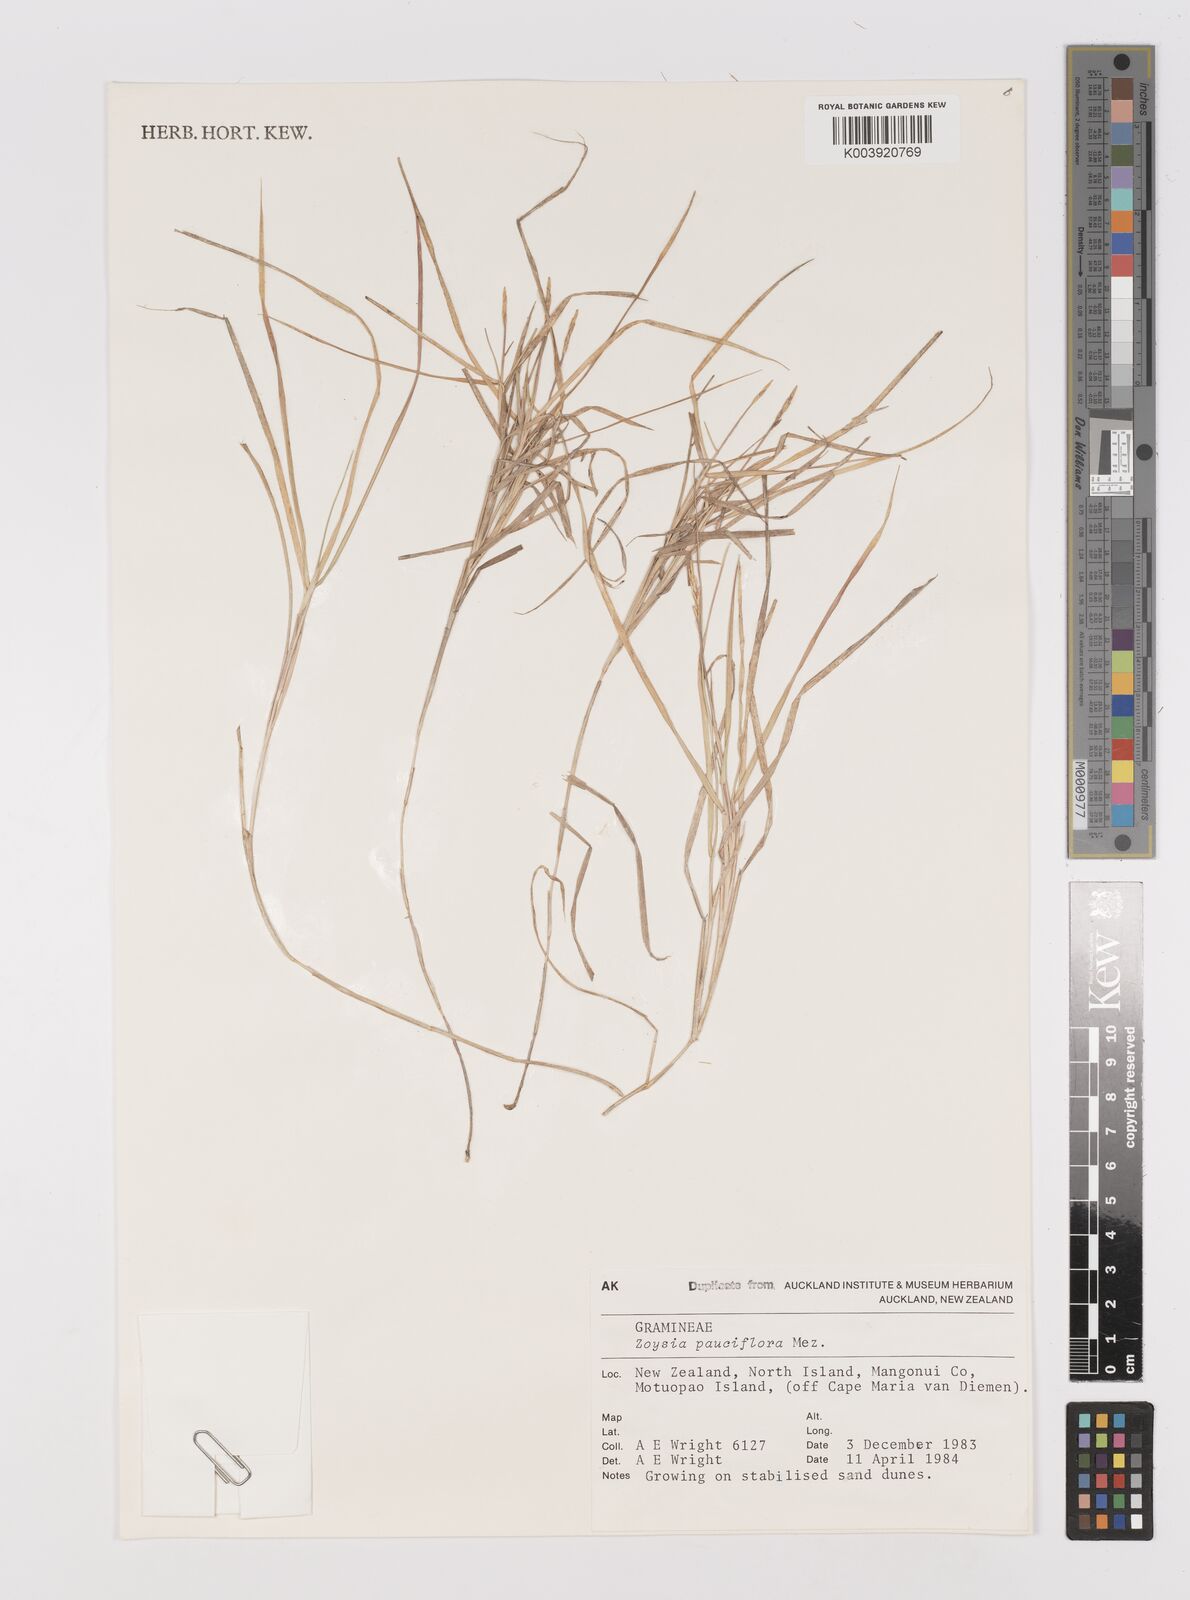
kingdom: Plantae
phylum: Tracheophyta
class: Liliopsida
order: Poales
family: Poaceae
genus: Zoysia
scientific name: Zoysia pauciflora
